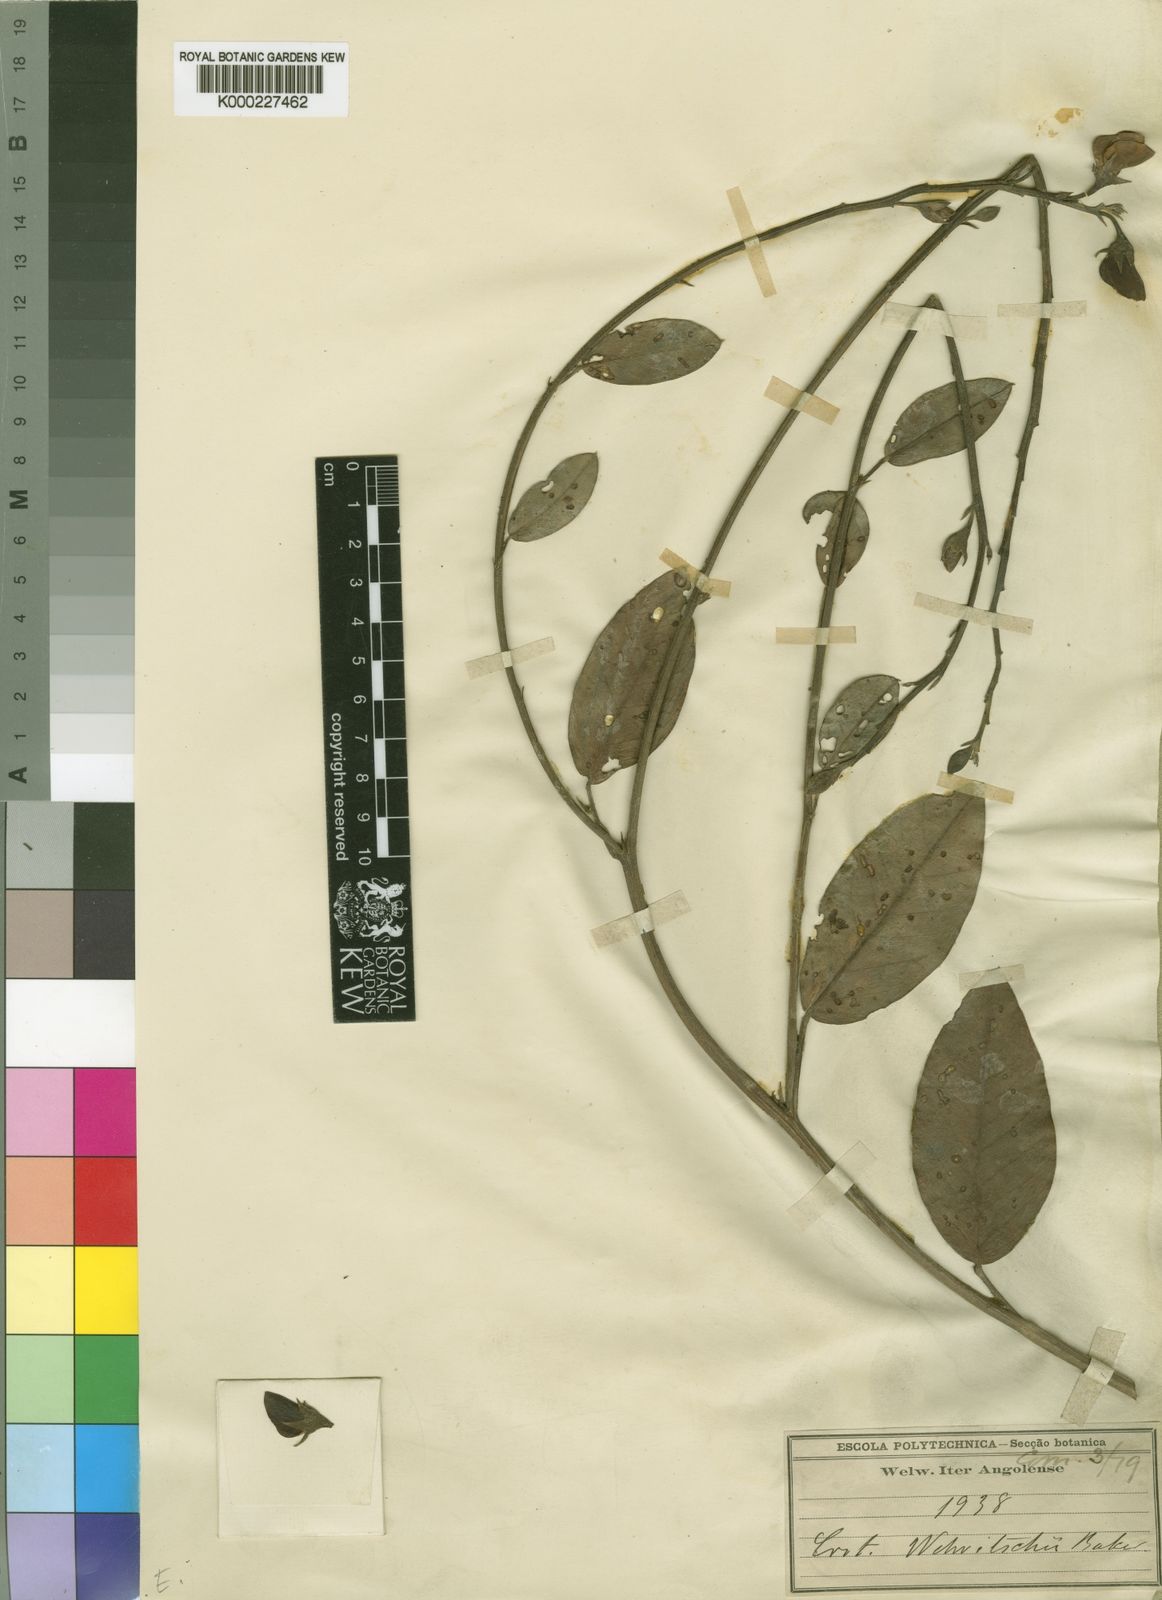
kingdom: Plantae
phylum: Tracheophyta
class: Magnoliopsida
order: Fabales
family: Fabaceae
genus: Crotalaria
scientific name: Crotalaria welwitschii
